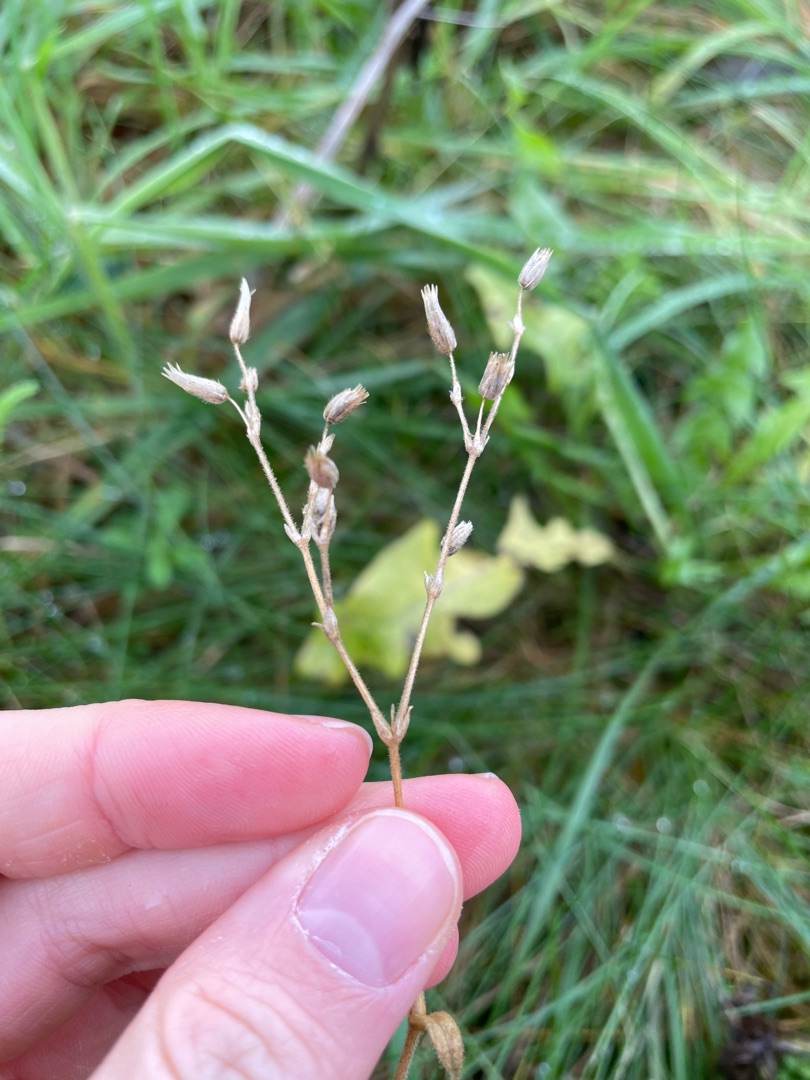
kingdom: Plantae
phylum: Tracheophyta
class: Magnoliopsida
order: Caryophyllales
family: Caryophyllaceae
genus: Cerastium
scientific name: Cerastium fontanum
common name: Almindelig hønsetarm
